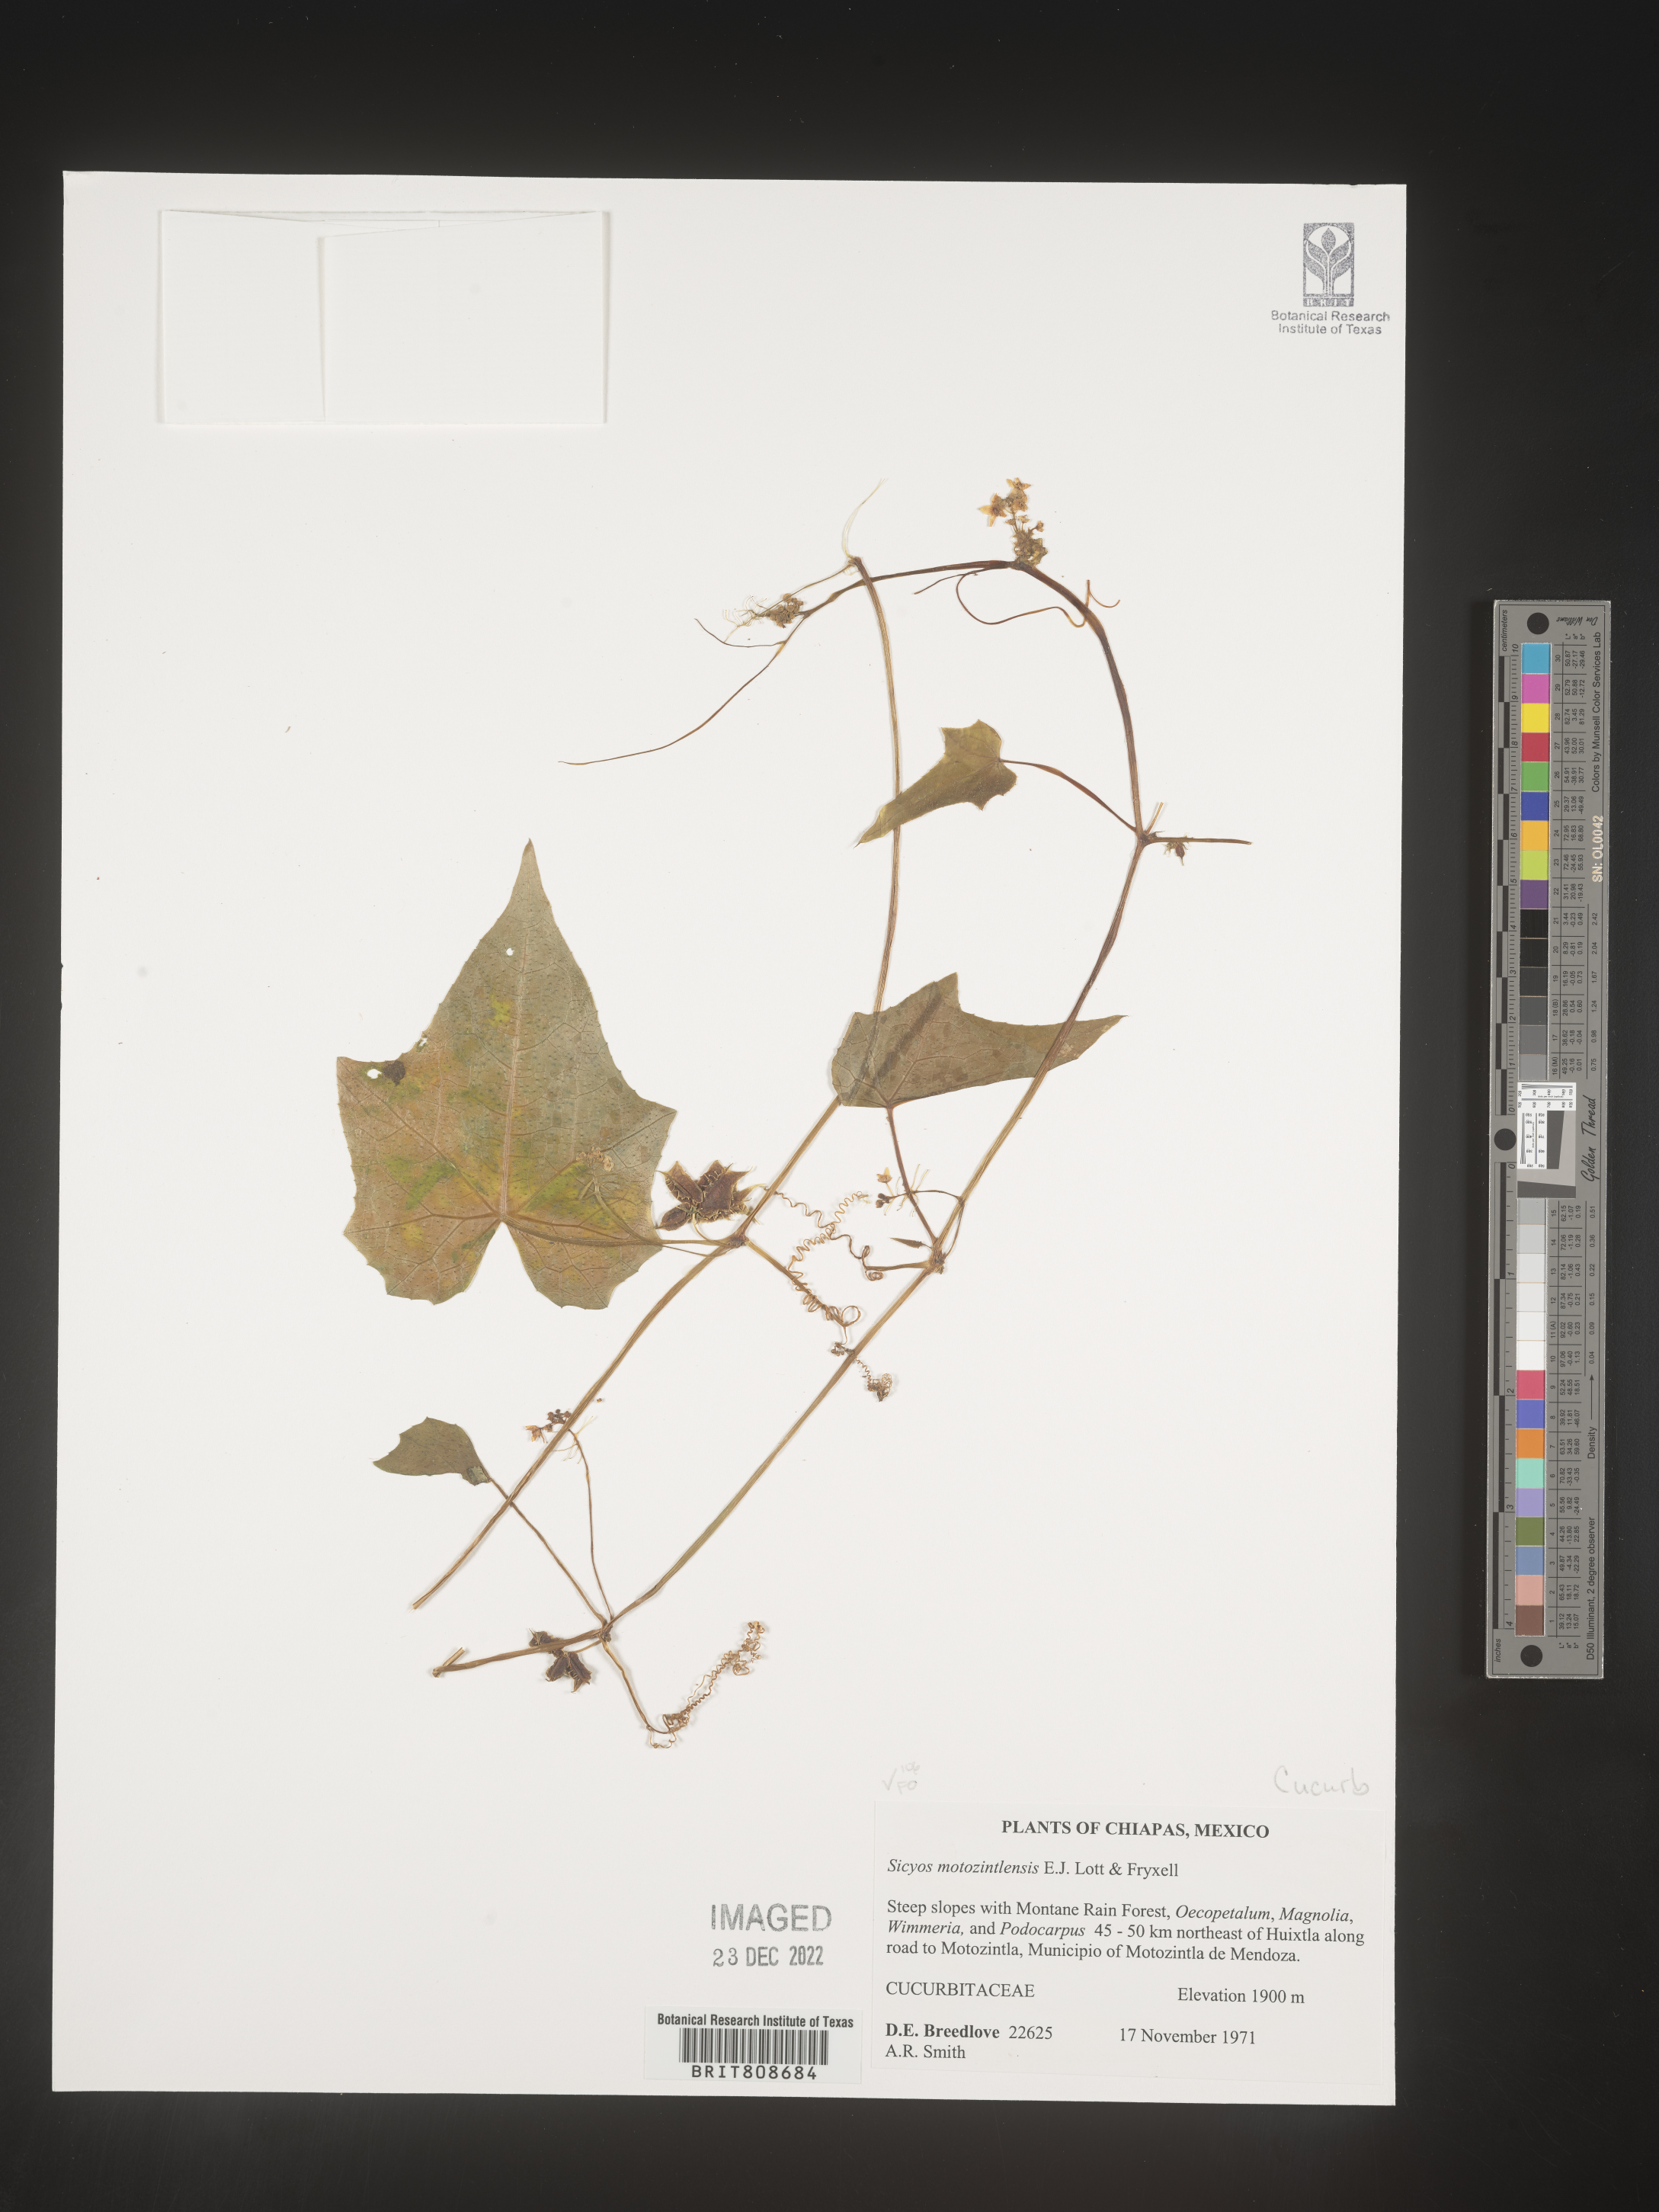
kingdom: Plantae
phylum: Tracheophyta
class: Magnoliopsida
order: Cucurbitales
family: Cucurbitaceae
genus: Sicyos
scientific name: Sicyos
